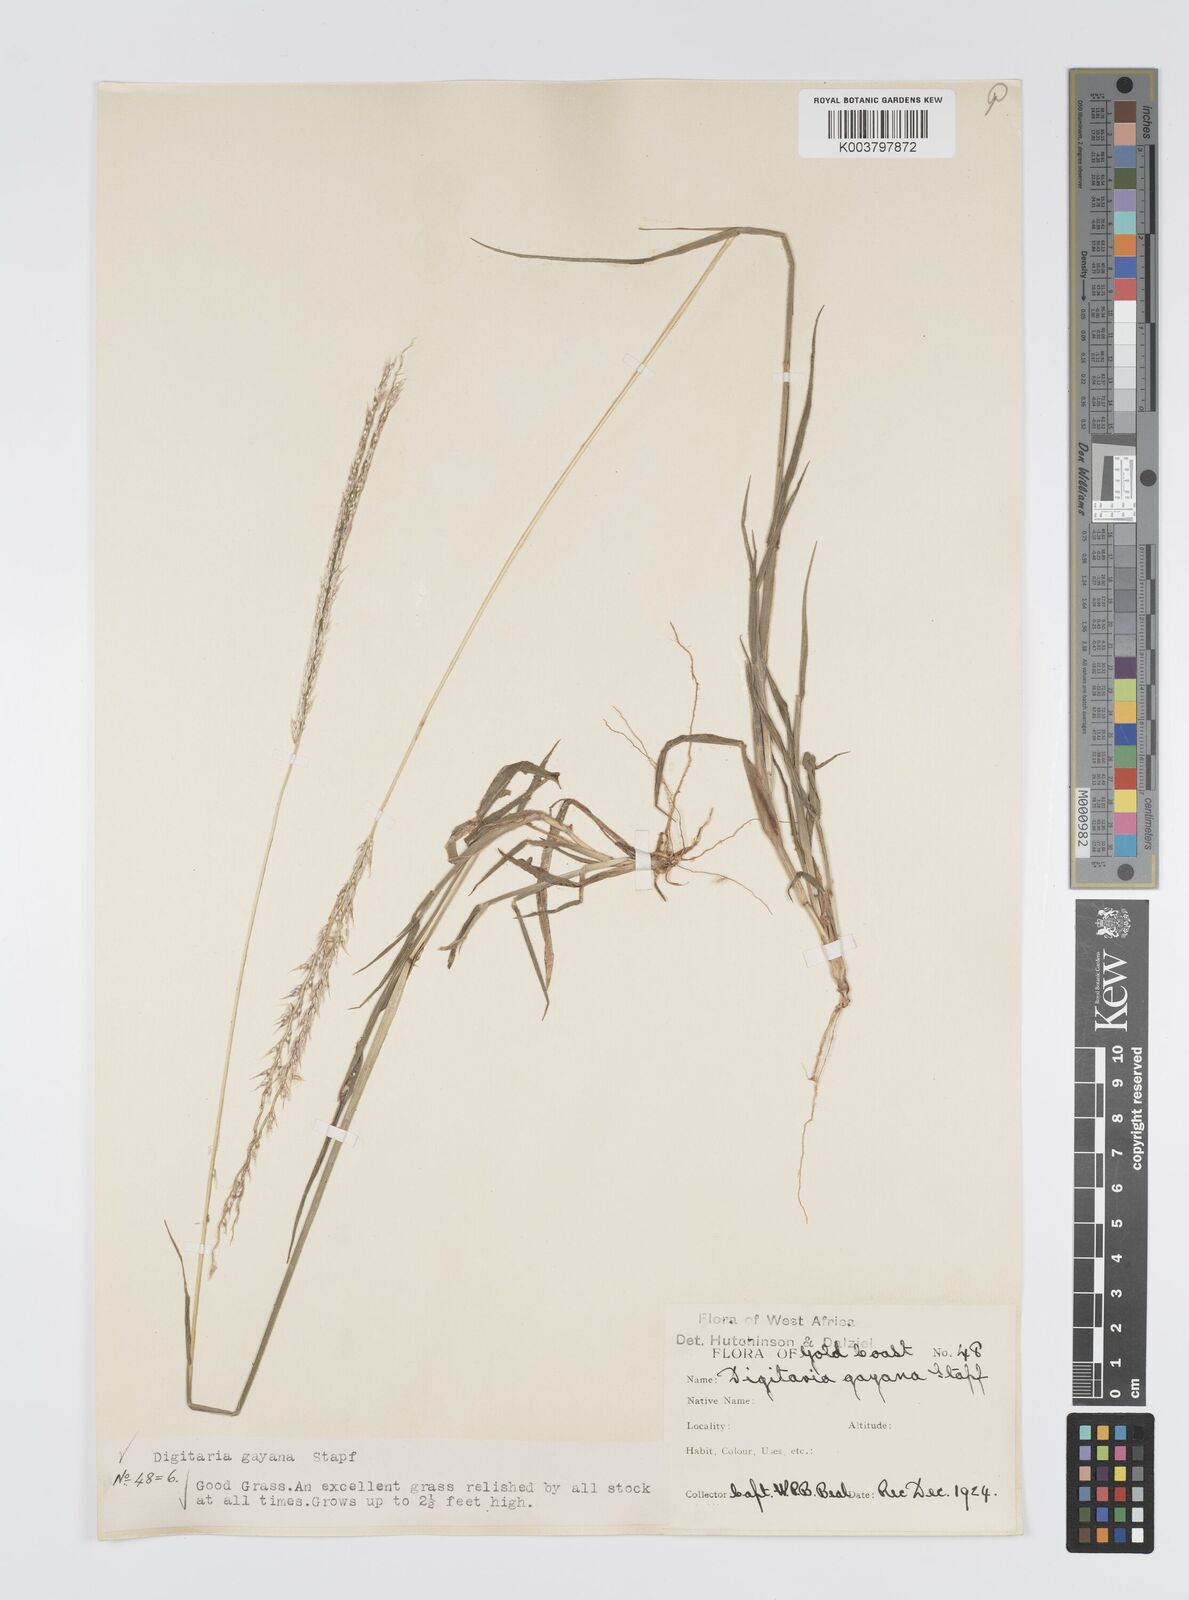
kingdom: Plantae
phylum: Tracheophyta
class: Liliopsida
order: Poales
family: Poaceae
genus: Digitaria
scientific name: Digitaria gayana
